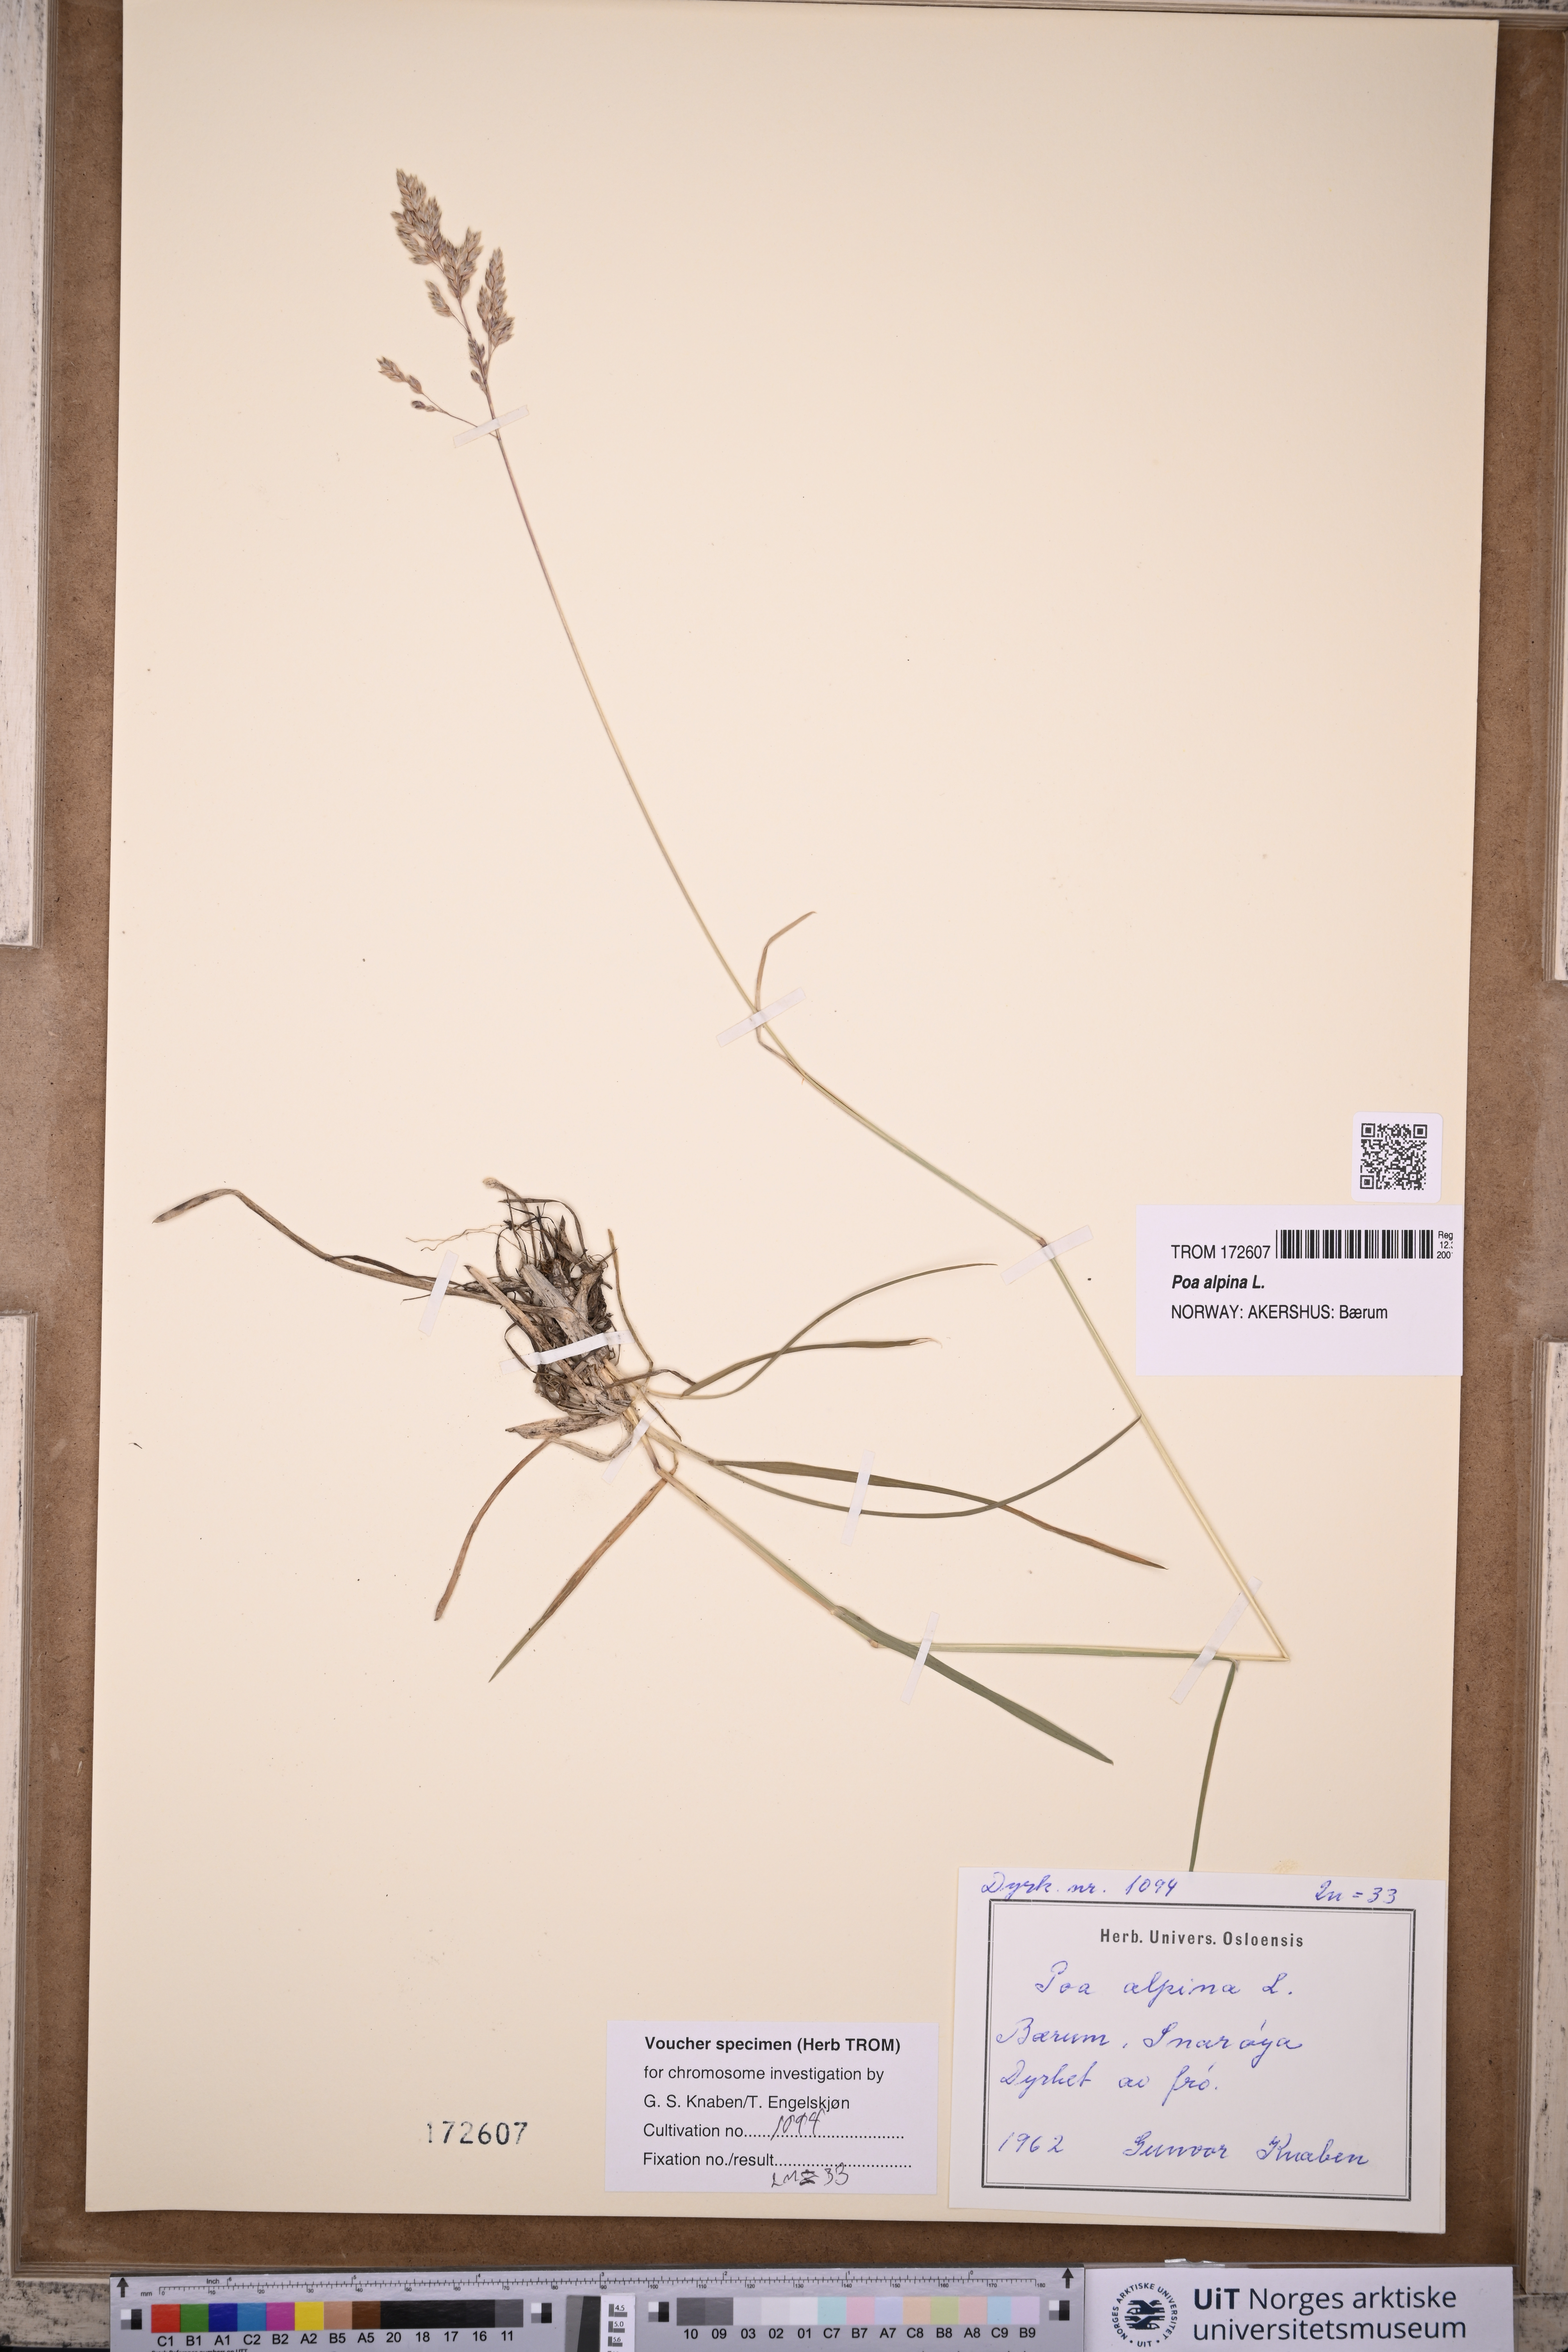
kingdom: Plantae
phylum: Tracheophyta
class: Liliopsida
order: Poales
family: Poaceae
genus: Poa
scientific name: Poa alpina
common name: Alpine bluegrass
